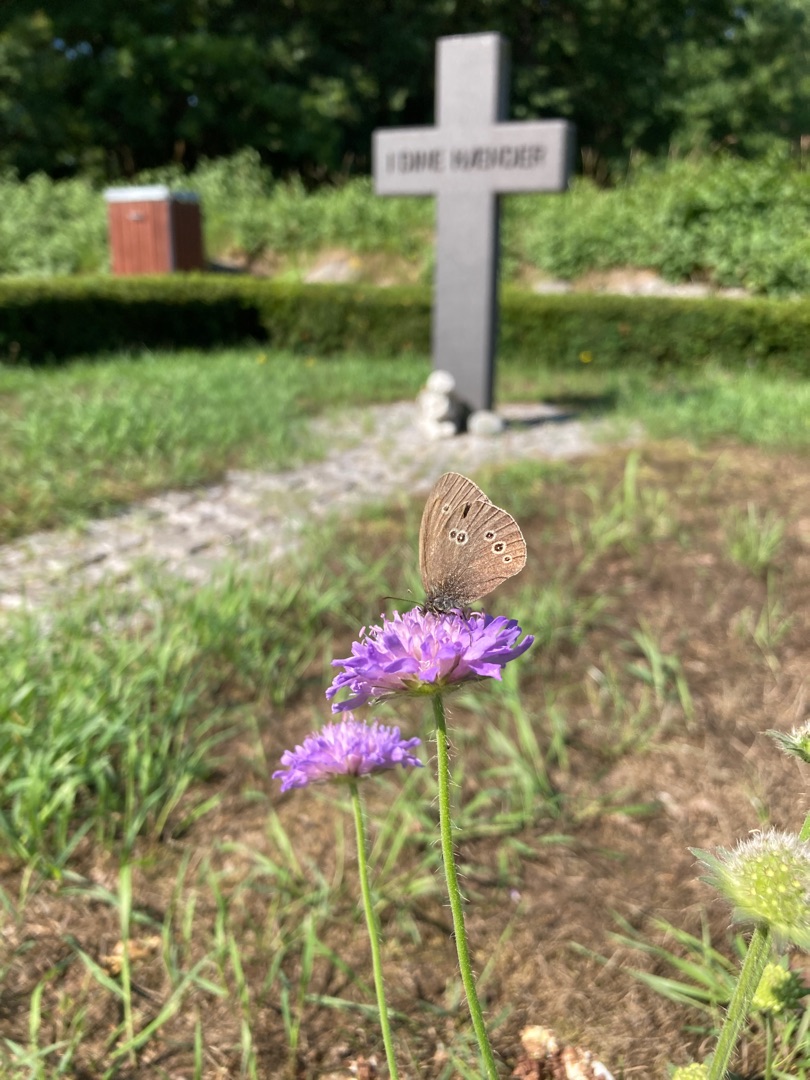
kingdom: Animalia
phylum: Arthropoda
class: Insecta
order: Lepidoptera
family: Nymphalidae
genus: Aphantopus
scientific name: Aphantopus hyperantus
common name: Engrandøje
